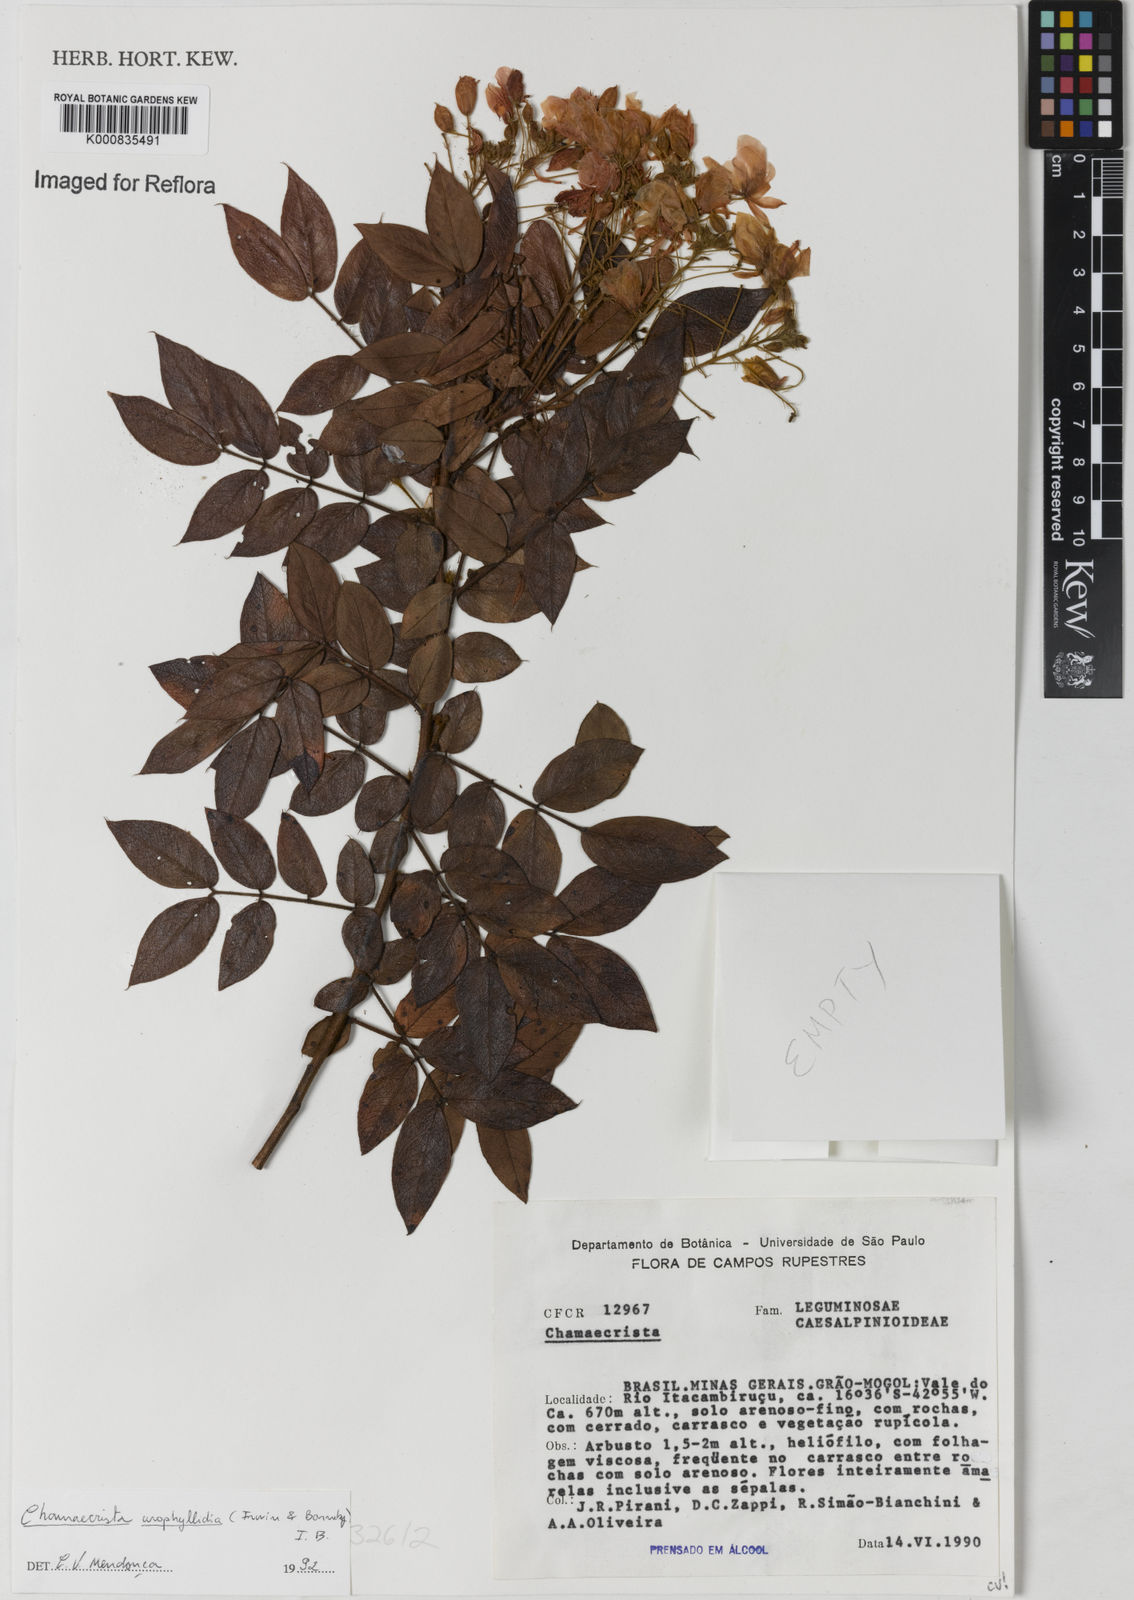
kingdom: Plantae
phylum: Tracheophyta
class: Magnoliopsida
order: Fabales
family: Fabaceae
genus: Chamaecrista
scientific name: Chamaecrista urophyllidia
